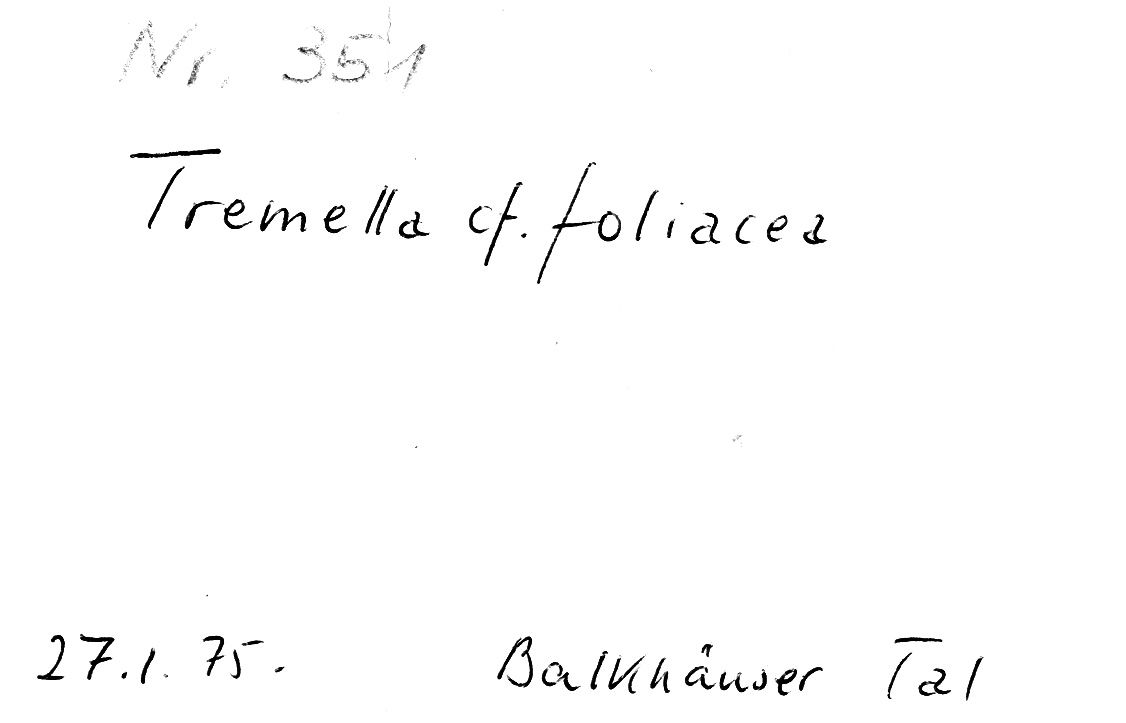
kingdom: Fungi
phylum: Basidiomycota
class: Tremellomycetes
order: Tremellales
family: Tremellaceae
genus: Phaeotremella
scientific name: Phaeotremella foliacea
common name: Leafy brain
